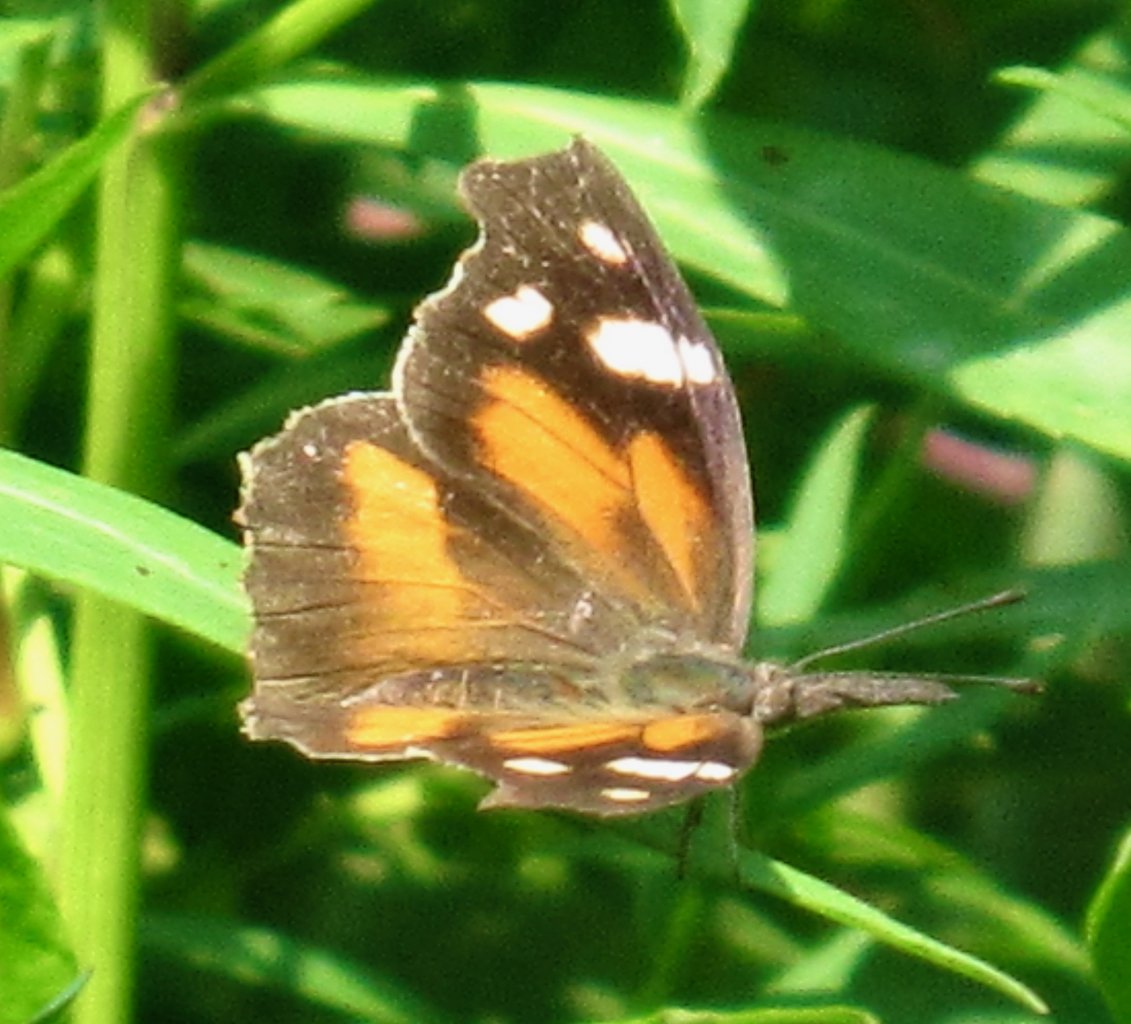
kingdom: Animalia
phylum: Arthropoda
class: Insecta
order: Lepidoptera
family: Nymphalidae
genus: Libytheana
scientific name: Libytheana carinenta
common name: American Snout
